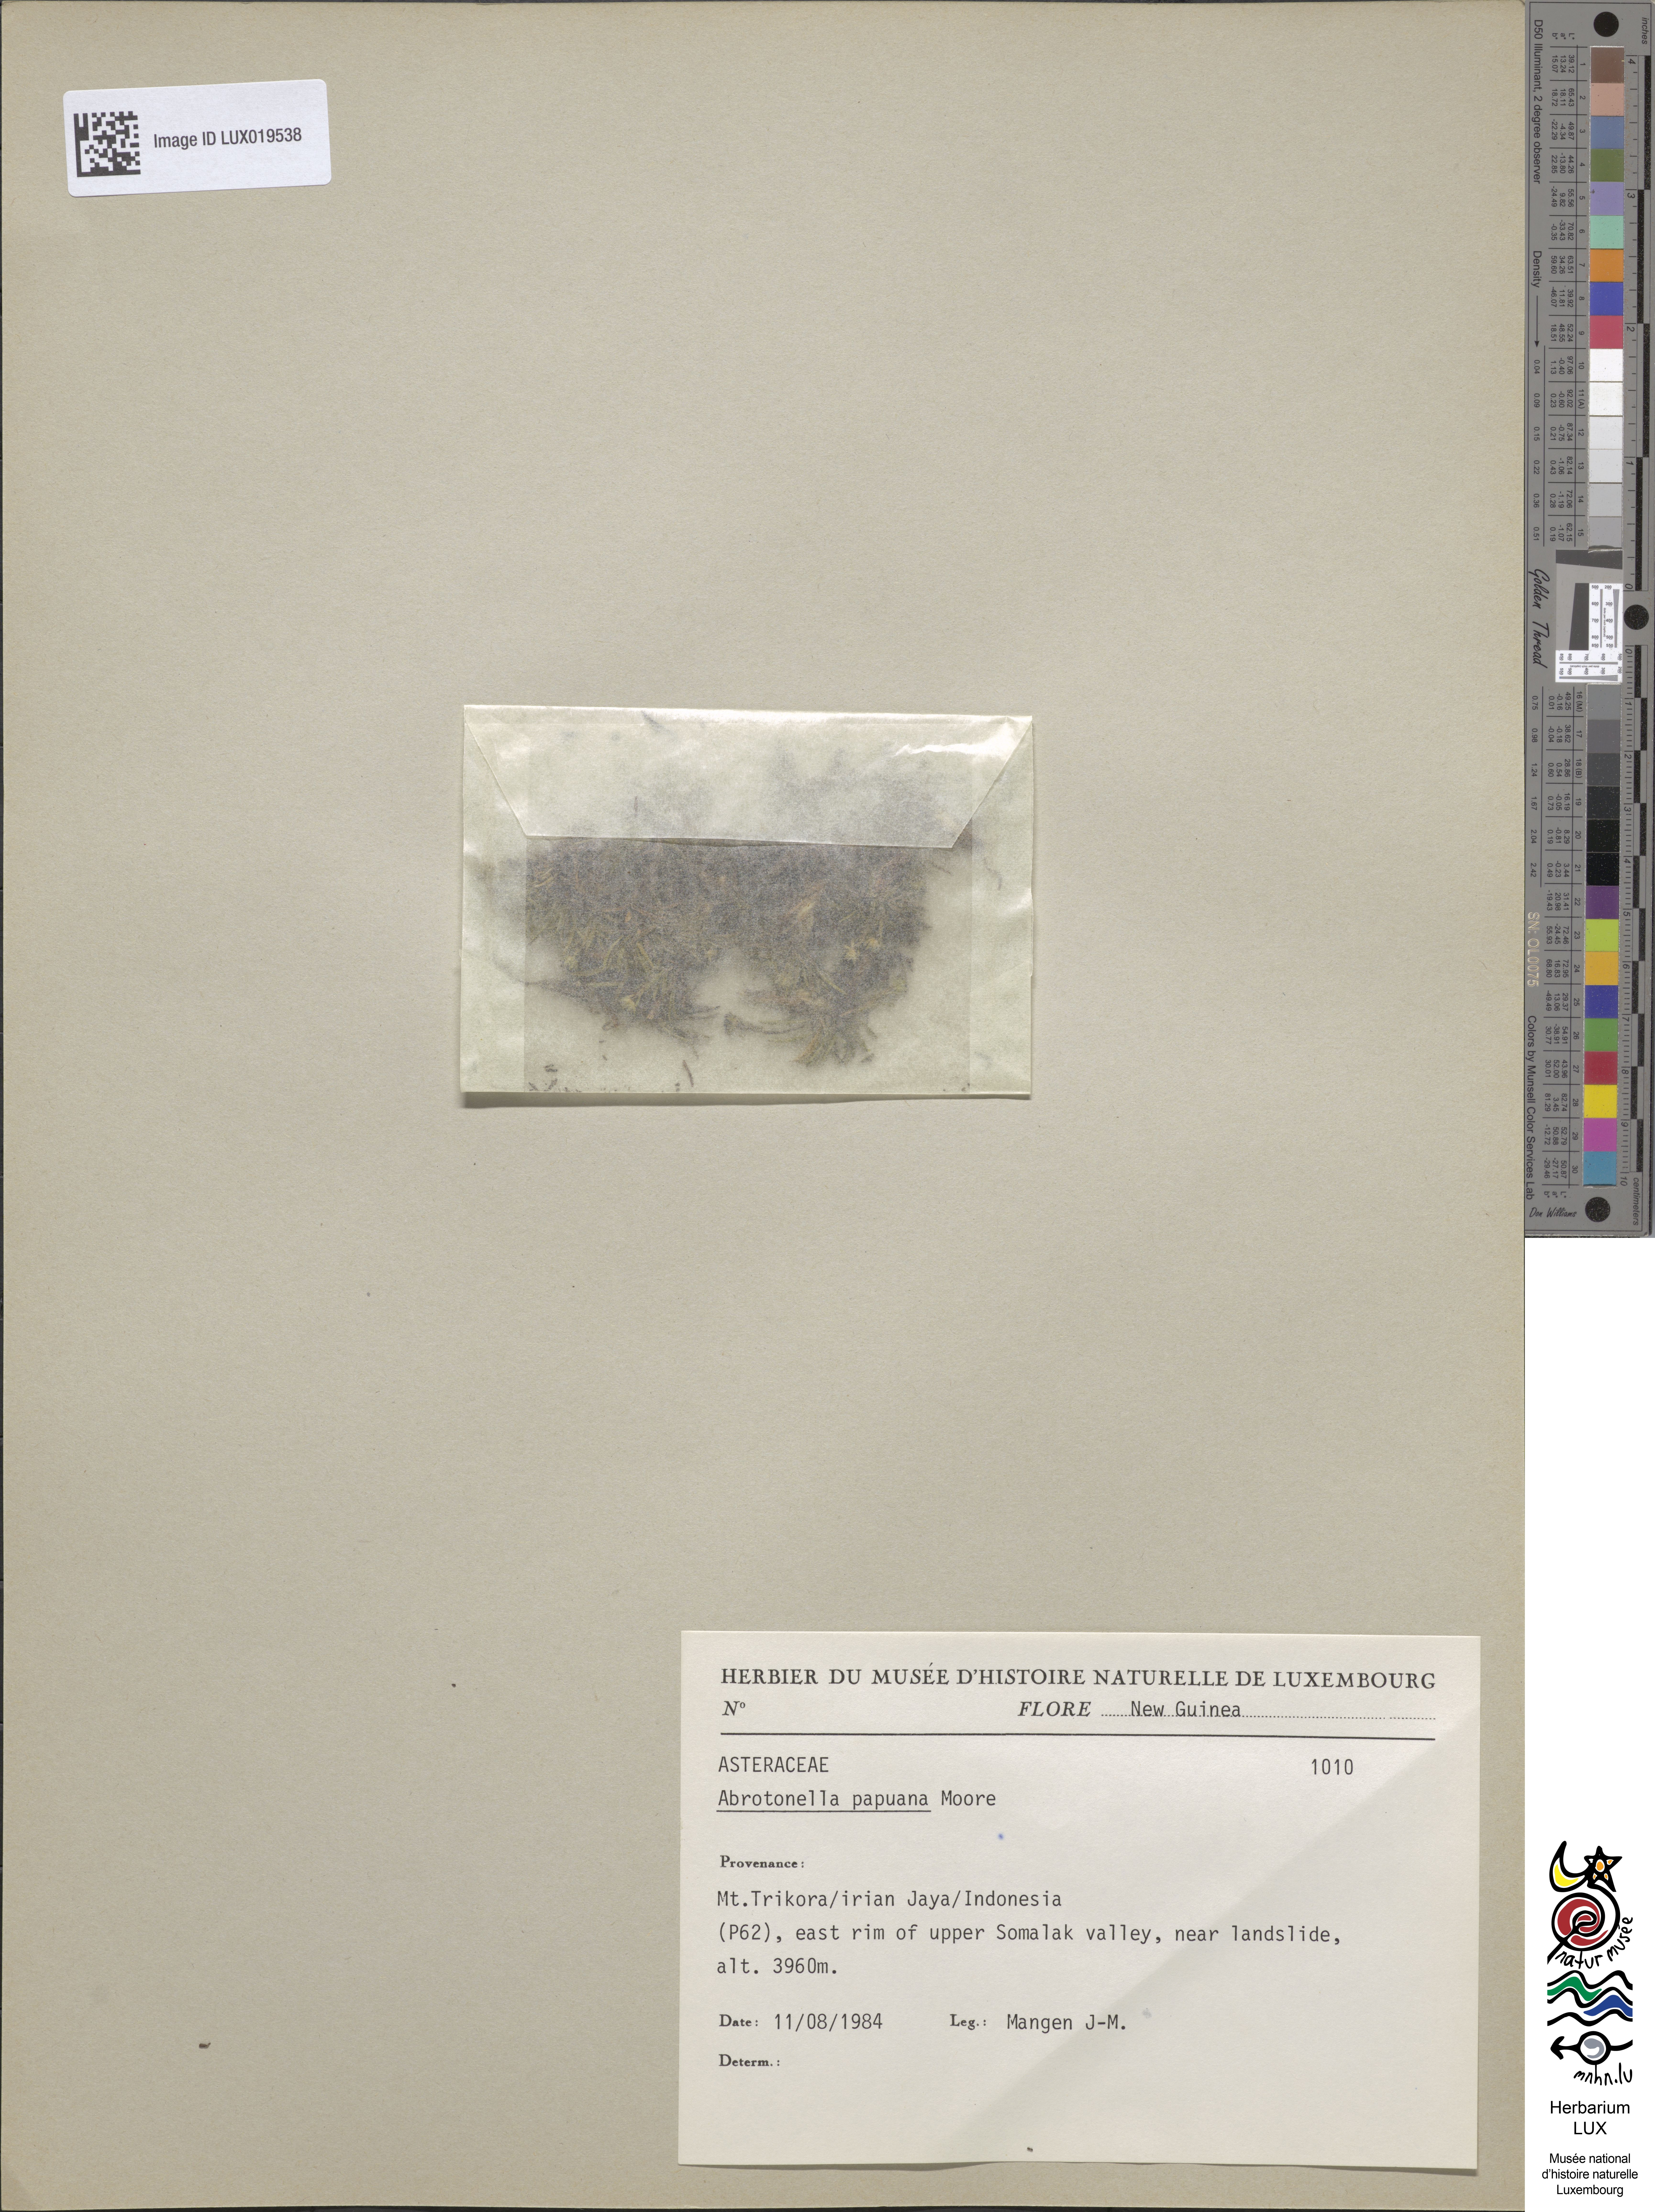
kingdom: Plantae
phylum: Tracheophyta
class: Magnoliopsida
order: Asterales
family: Asteraceae
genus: Abrotanella
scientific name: Abrotanella papuana
